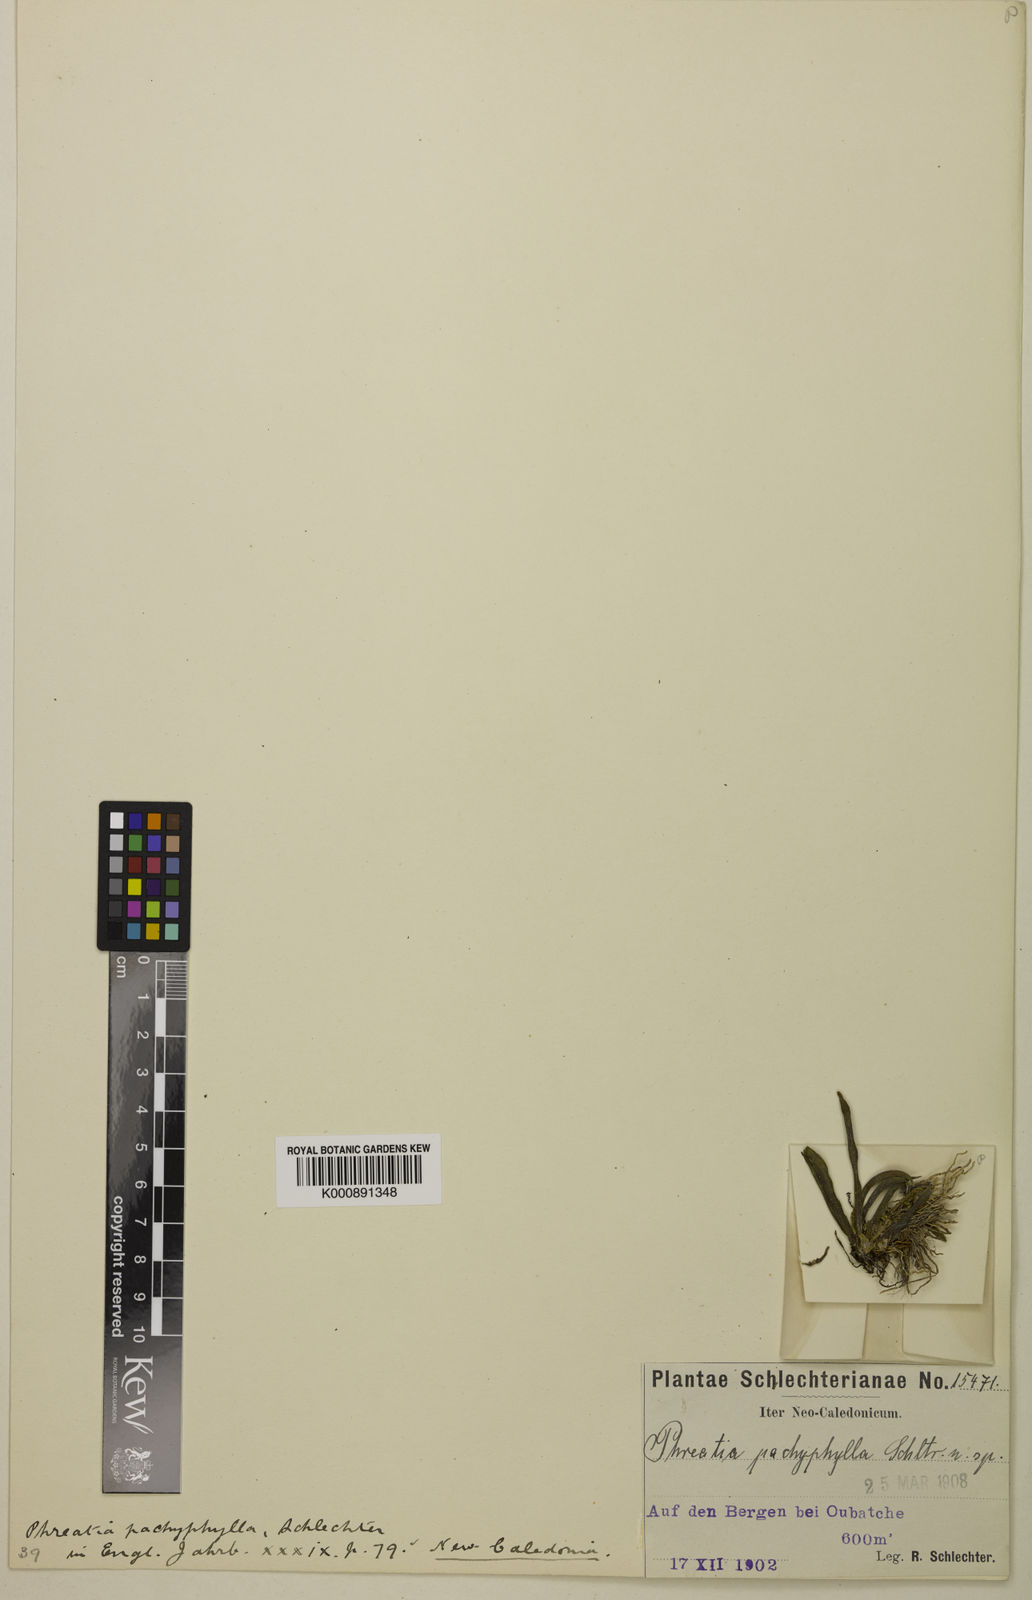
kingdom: Plantae
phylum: Tracheophyta
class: Liliopsida
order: Asparagales
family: Orchidaceae
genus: Phreatia
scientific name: Phreatia crassiuscula
